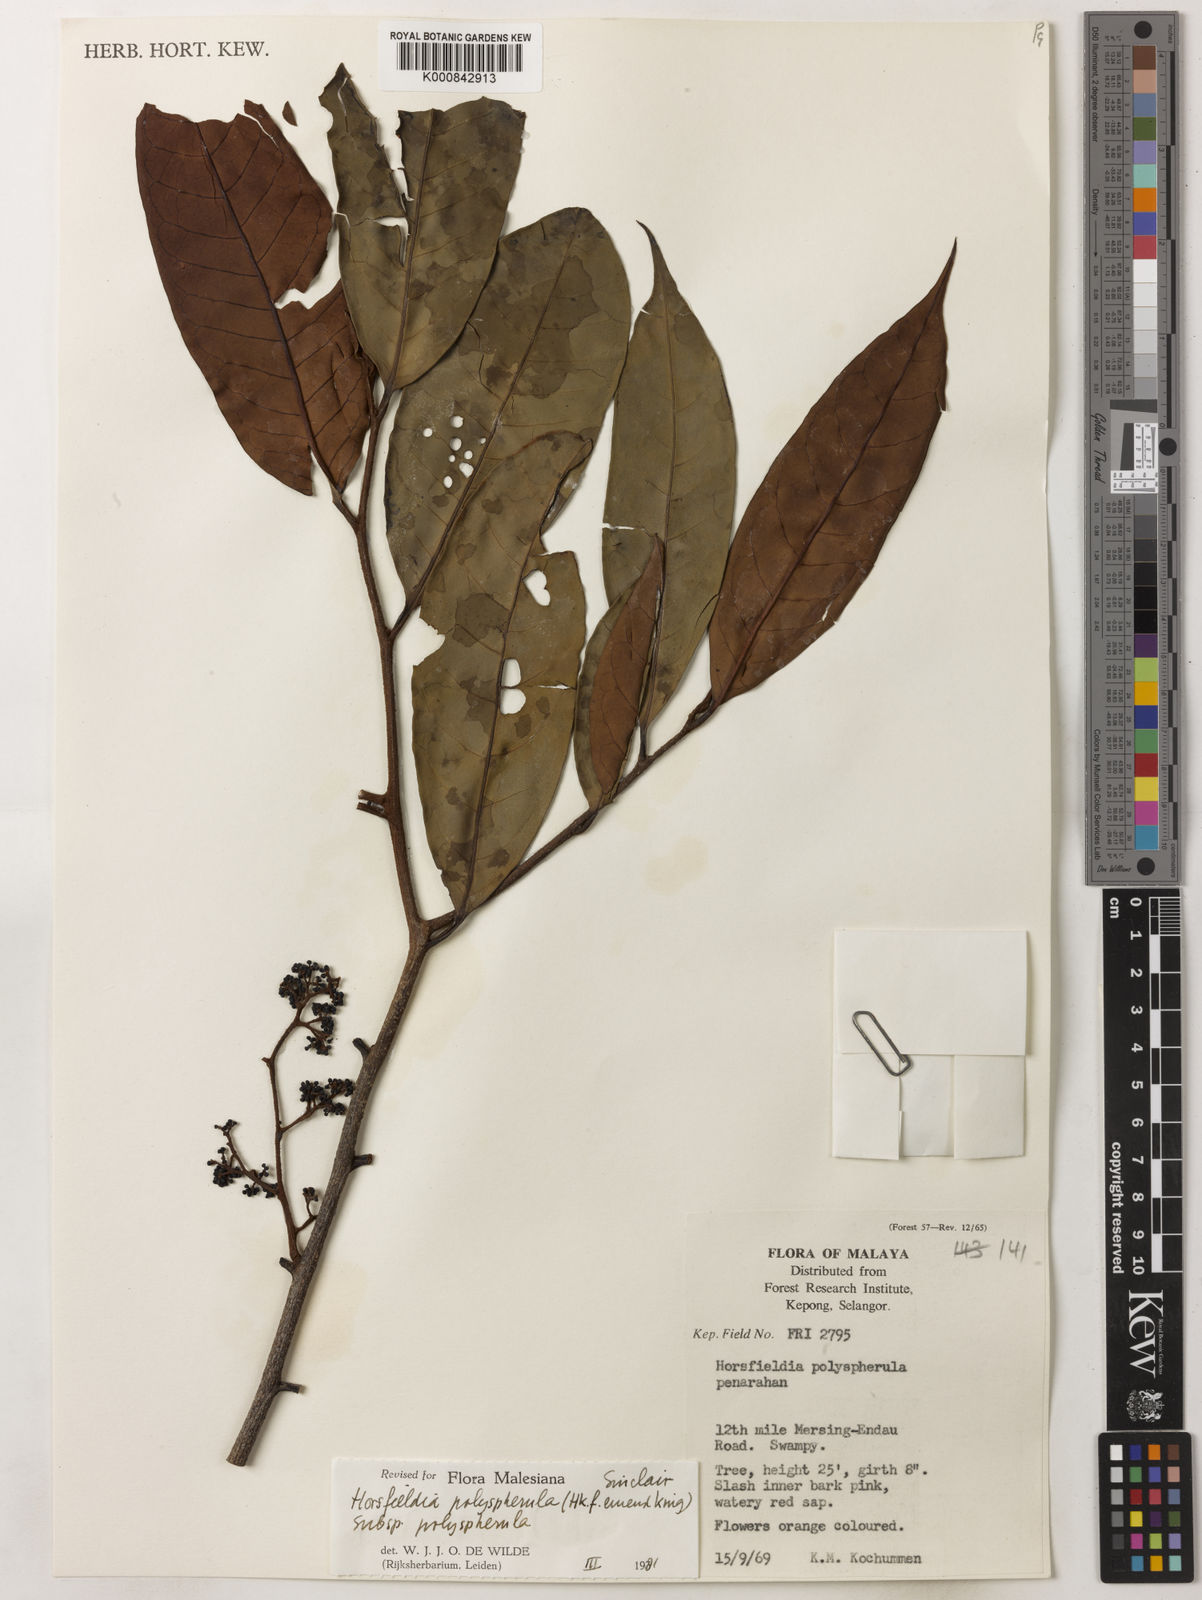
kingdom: Plantae
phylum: Tracheophyta
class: Magnoliopsida
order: Magnoliales
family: Myristicaceae
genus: Horsfieldia
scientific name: Horsfieldia
